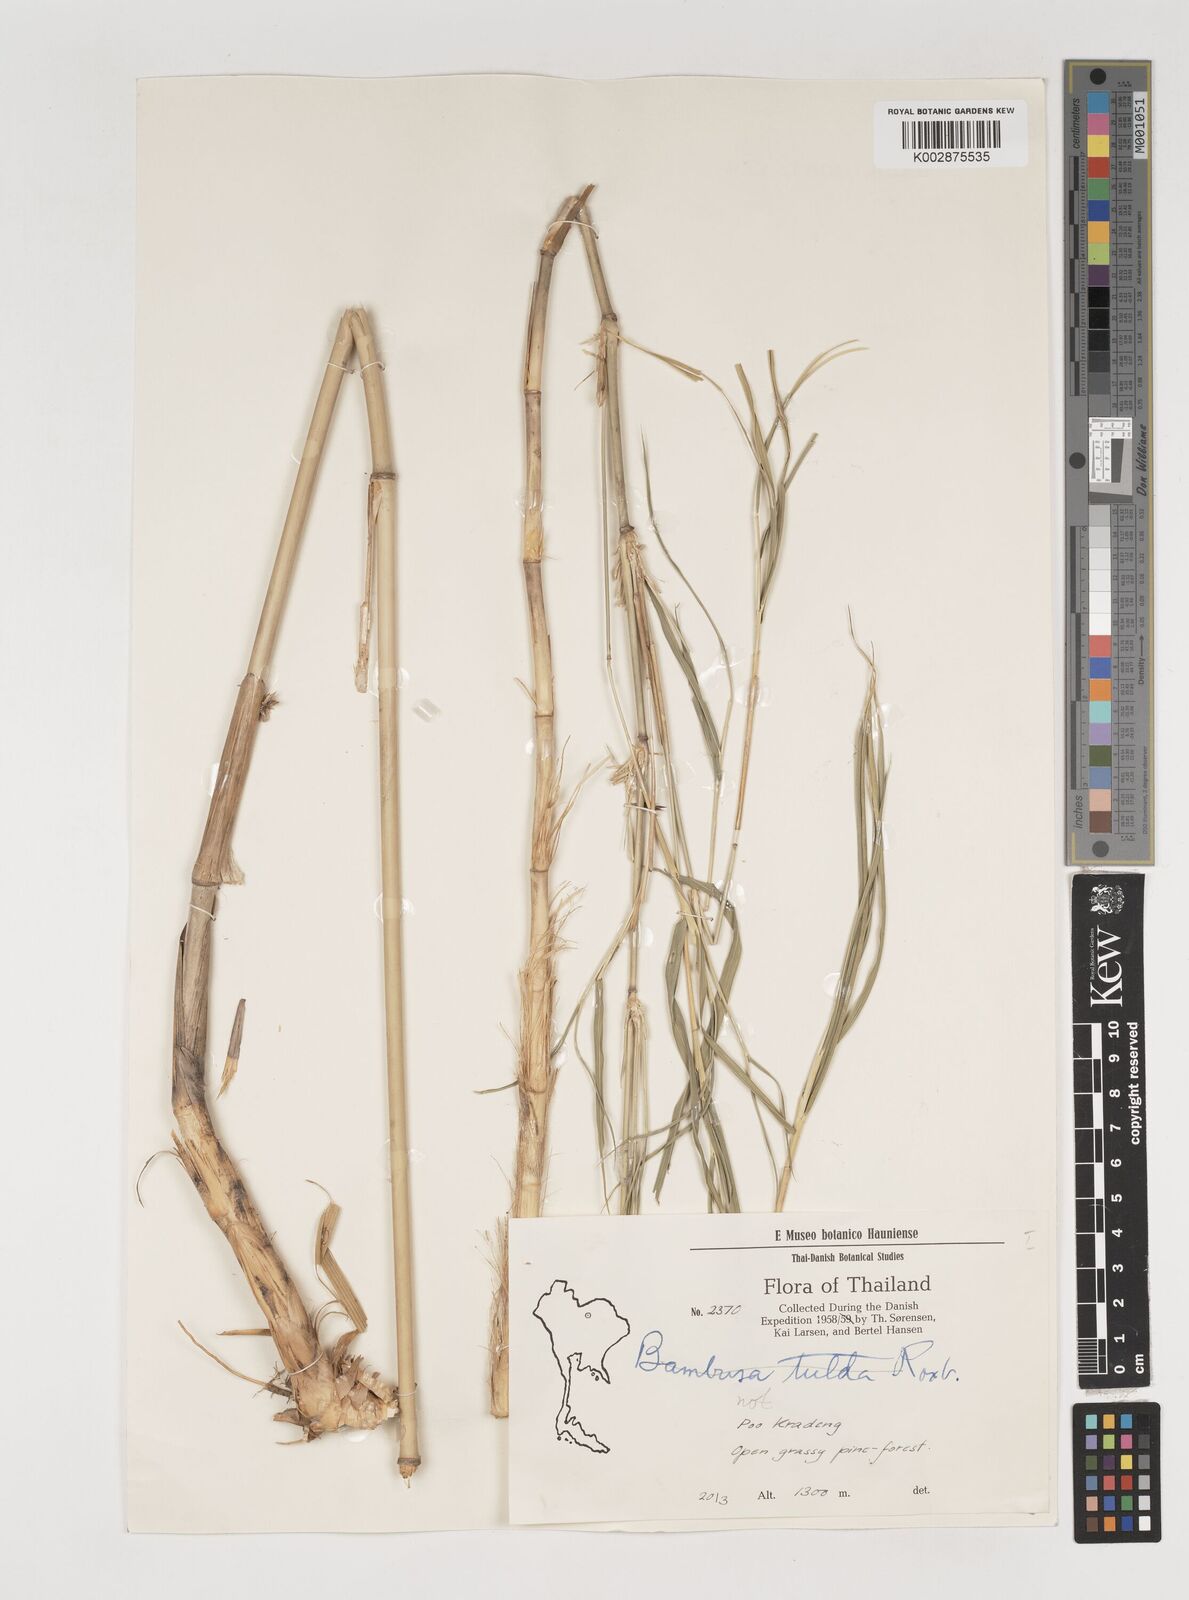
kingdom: Plantae
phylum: Tracheophyta
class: Liliopsida
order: Poales
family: Poaceae
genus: Vietnamosasa
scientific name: Vietnamosasa
